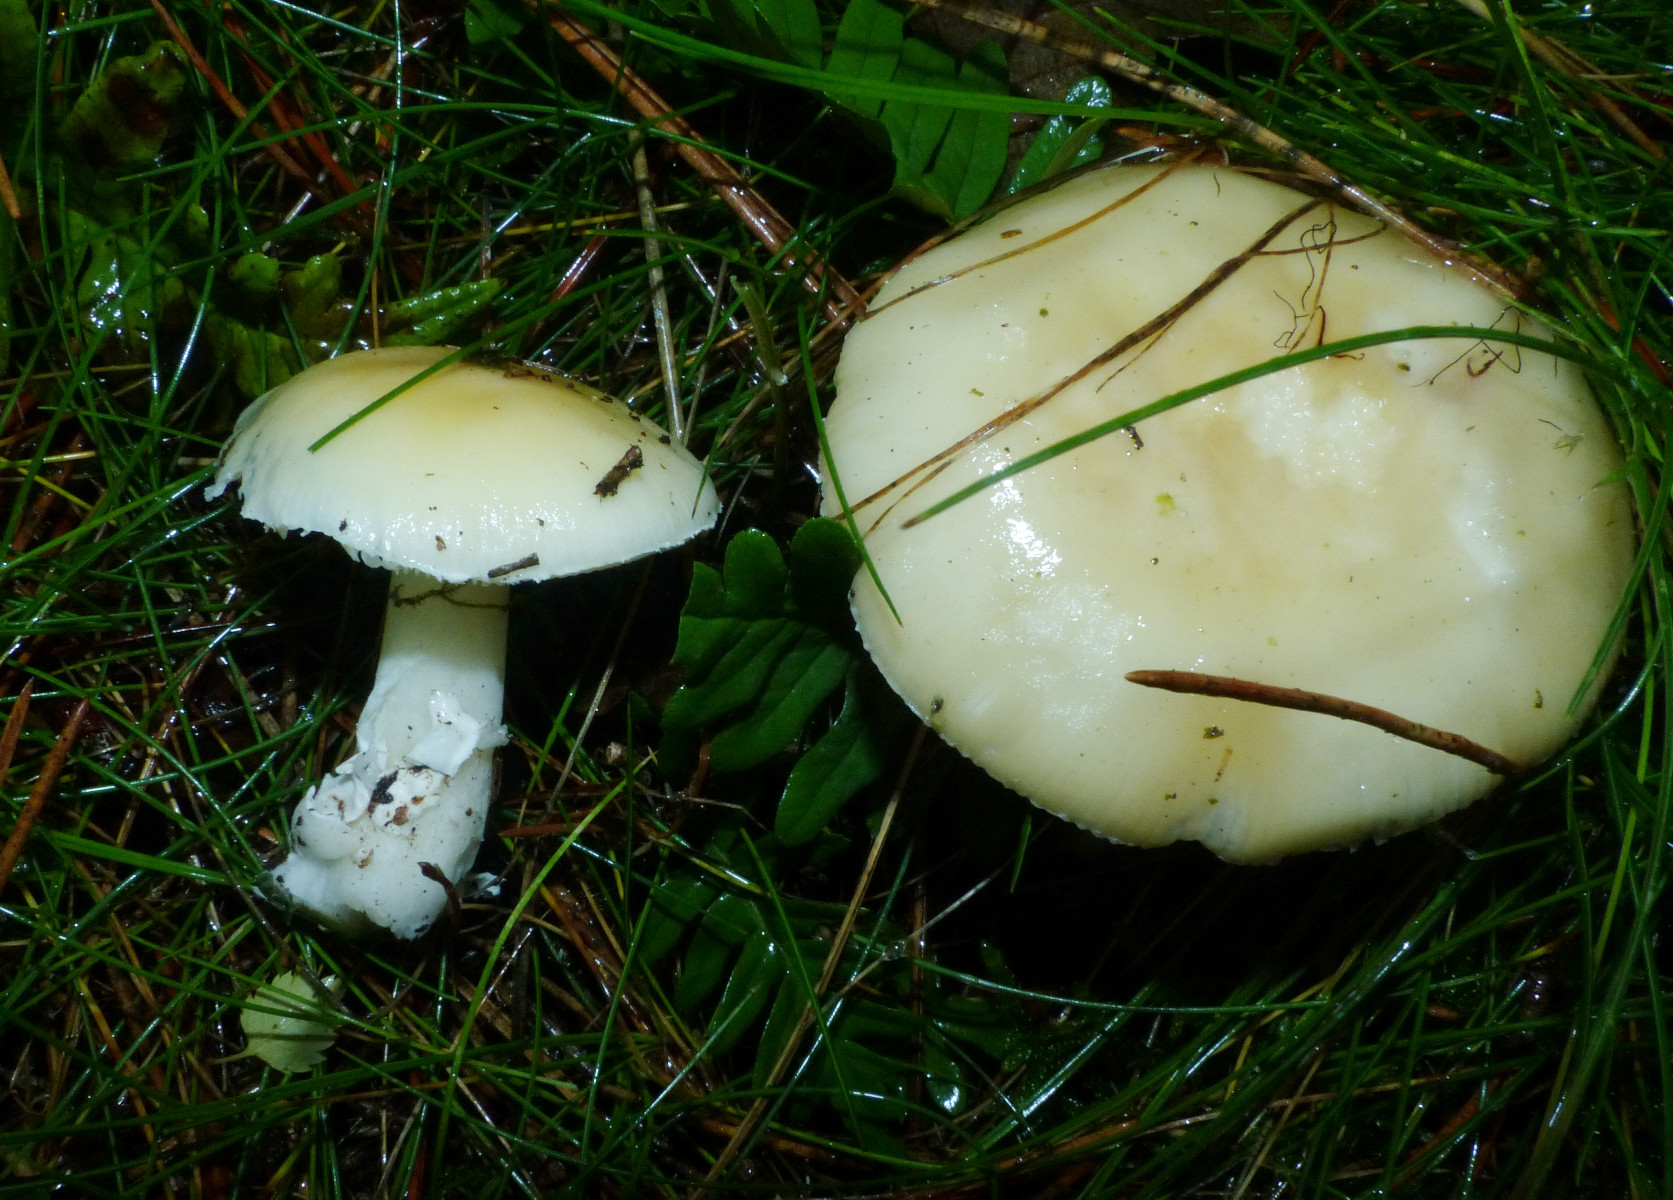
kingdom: Fungi
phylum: Basidiomycota
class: Agaricomycetes
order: Agaricales
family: Amanitaceae
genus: Amanita
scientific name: Amanita gemmata
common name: okkergul fluesvamp
